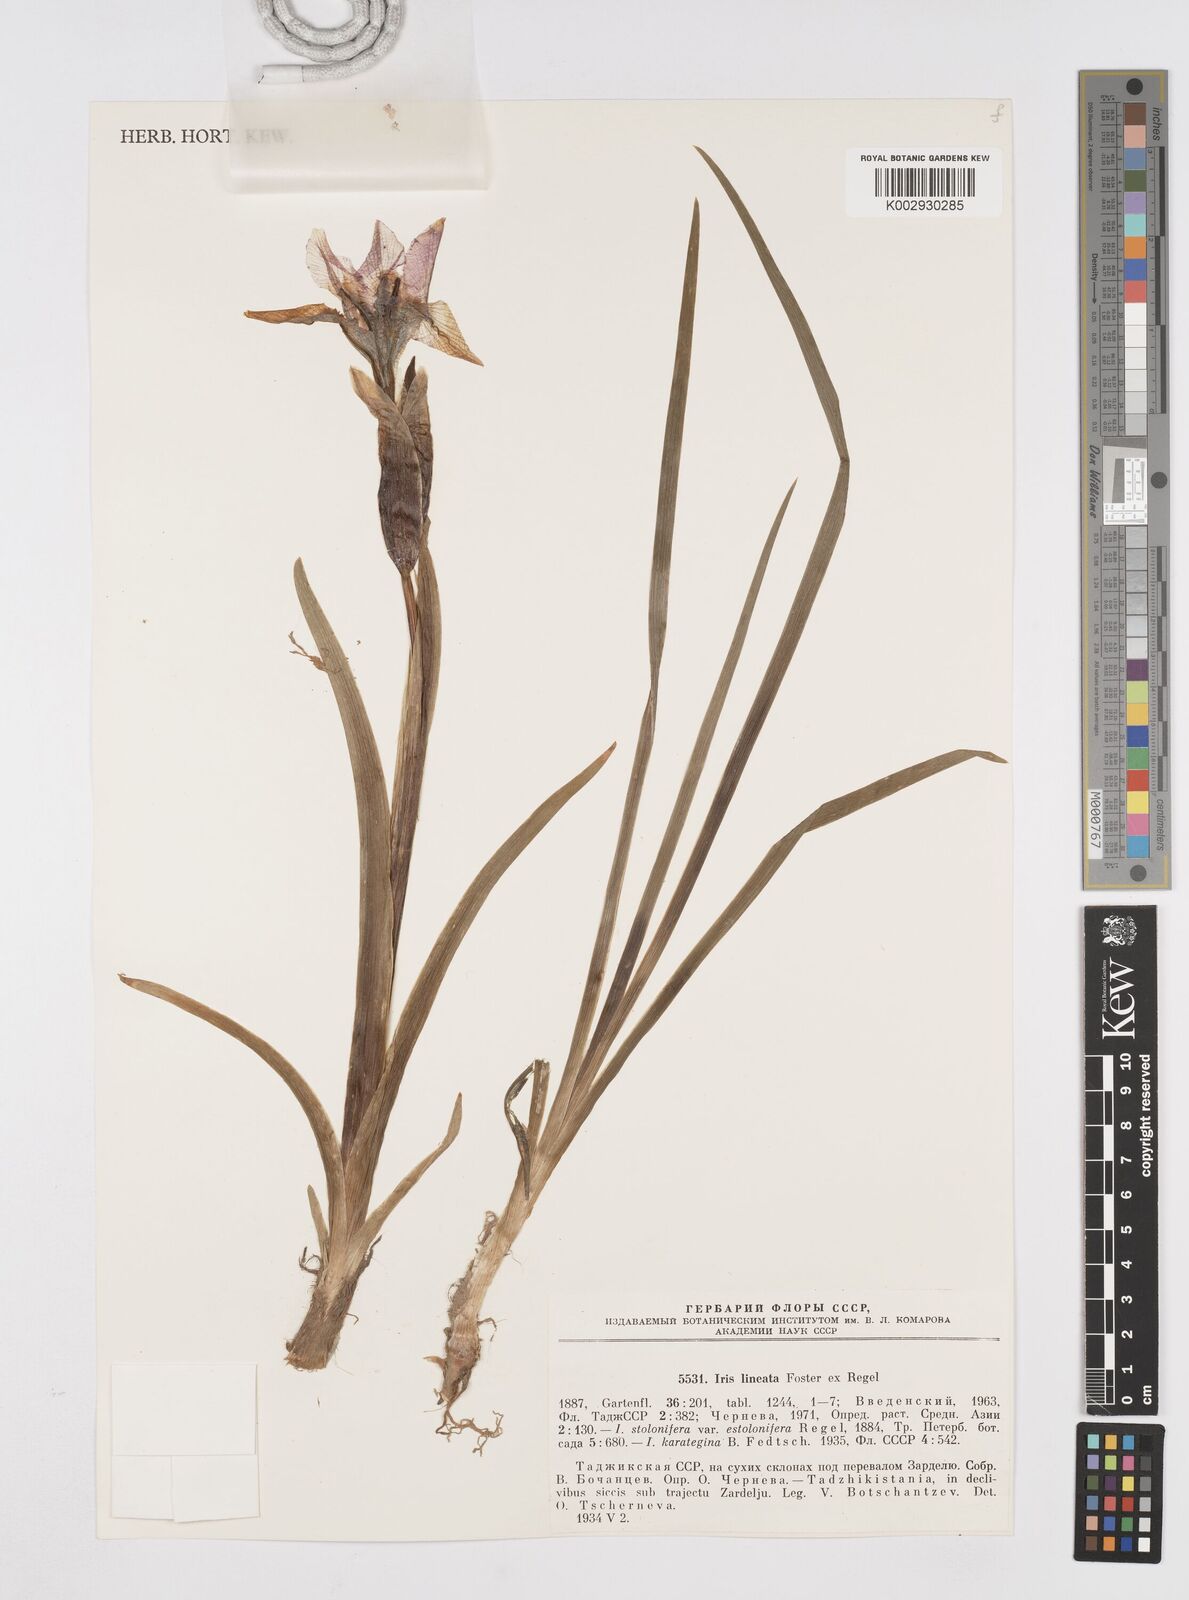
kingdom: Plantae
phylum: Tracheophyta
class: Liliopsida
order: Asparagales
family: Iridaceae
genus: Iris
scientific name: Iris stolonifera
